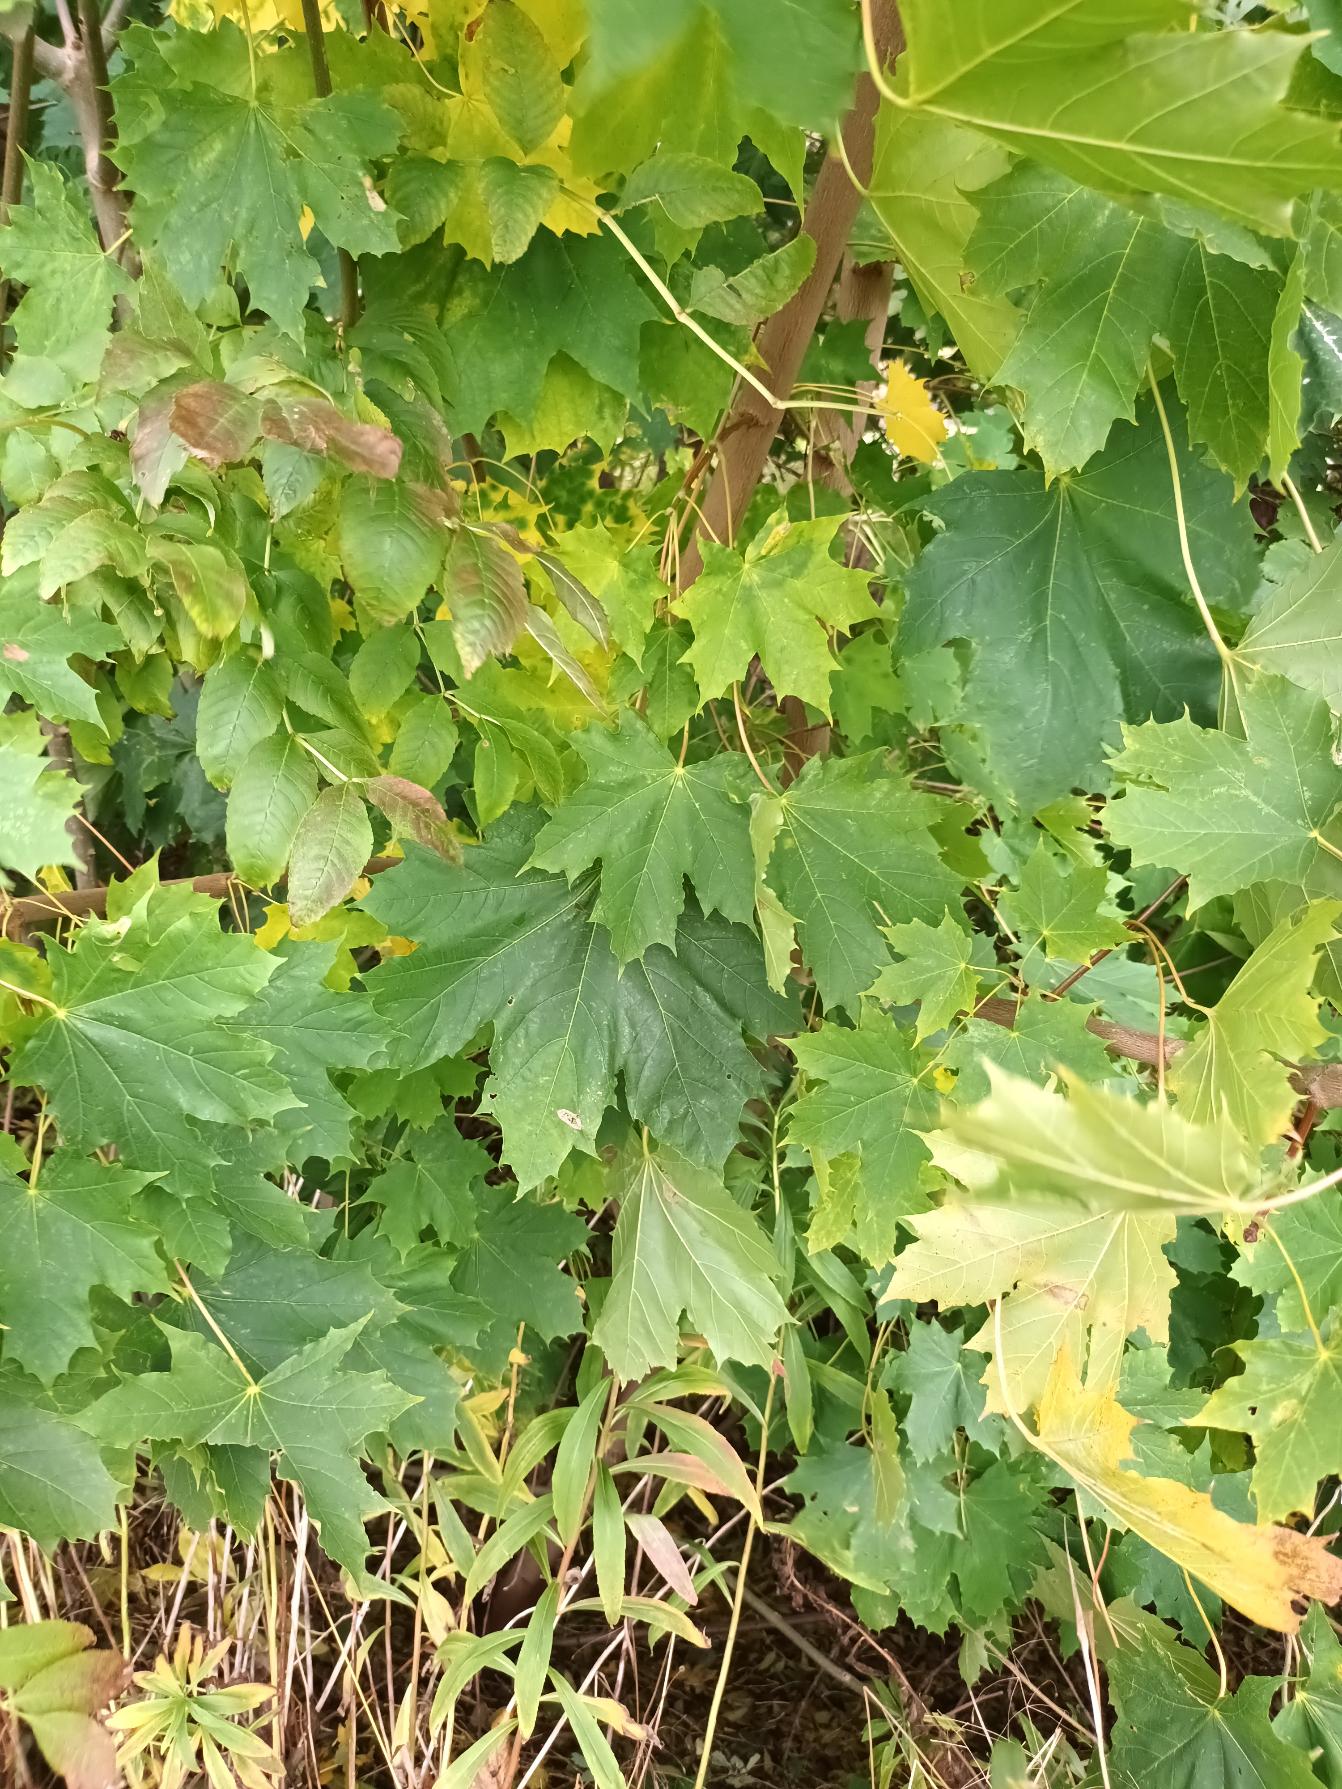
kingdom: Plantae
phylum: Tracheophyta
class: Magnoliopsida
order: Sapindales
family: Sapindaceae
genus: Acer
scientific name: Acer platanoides
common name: Spids-løn
